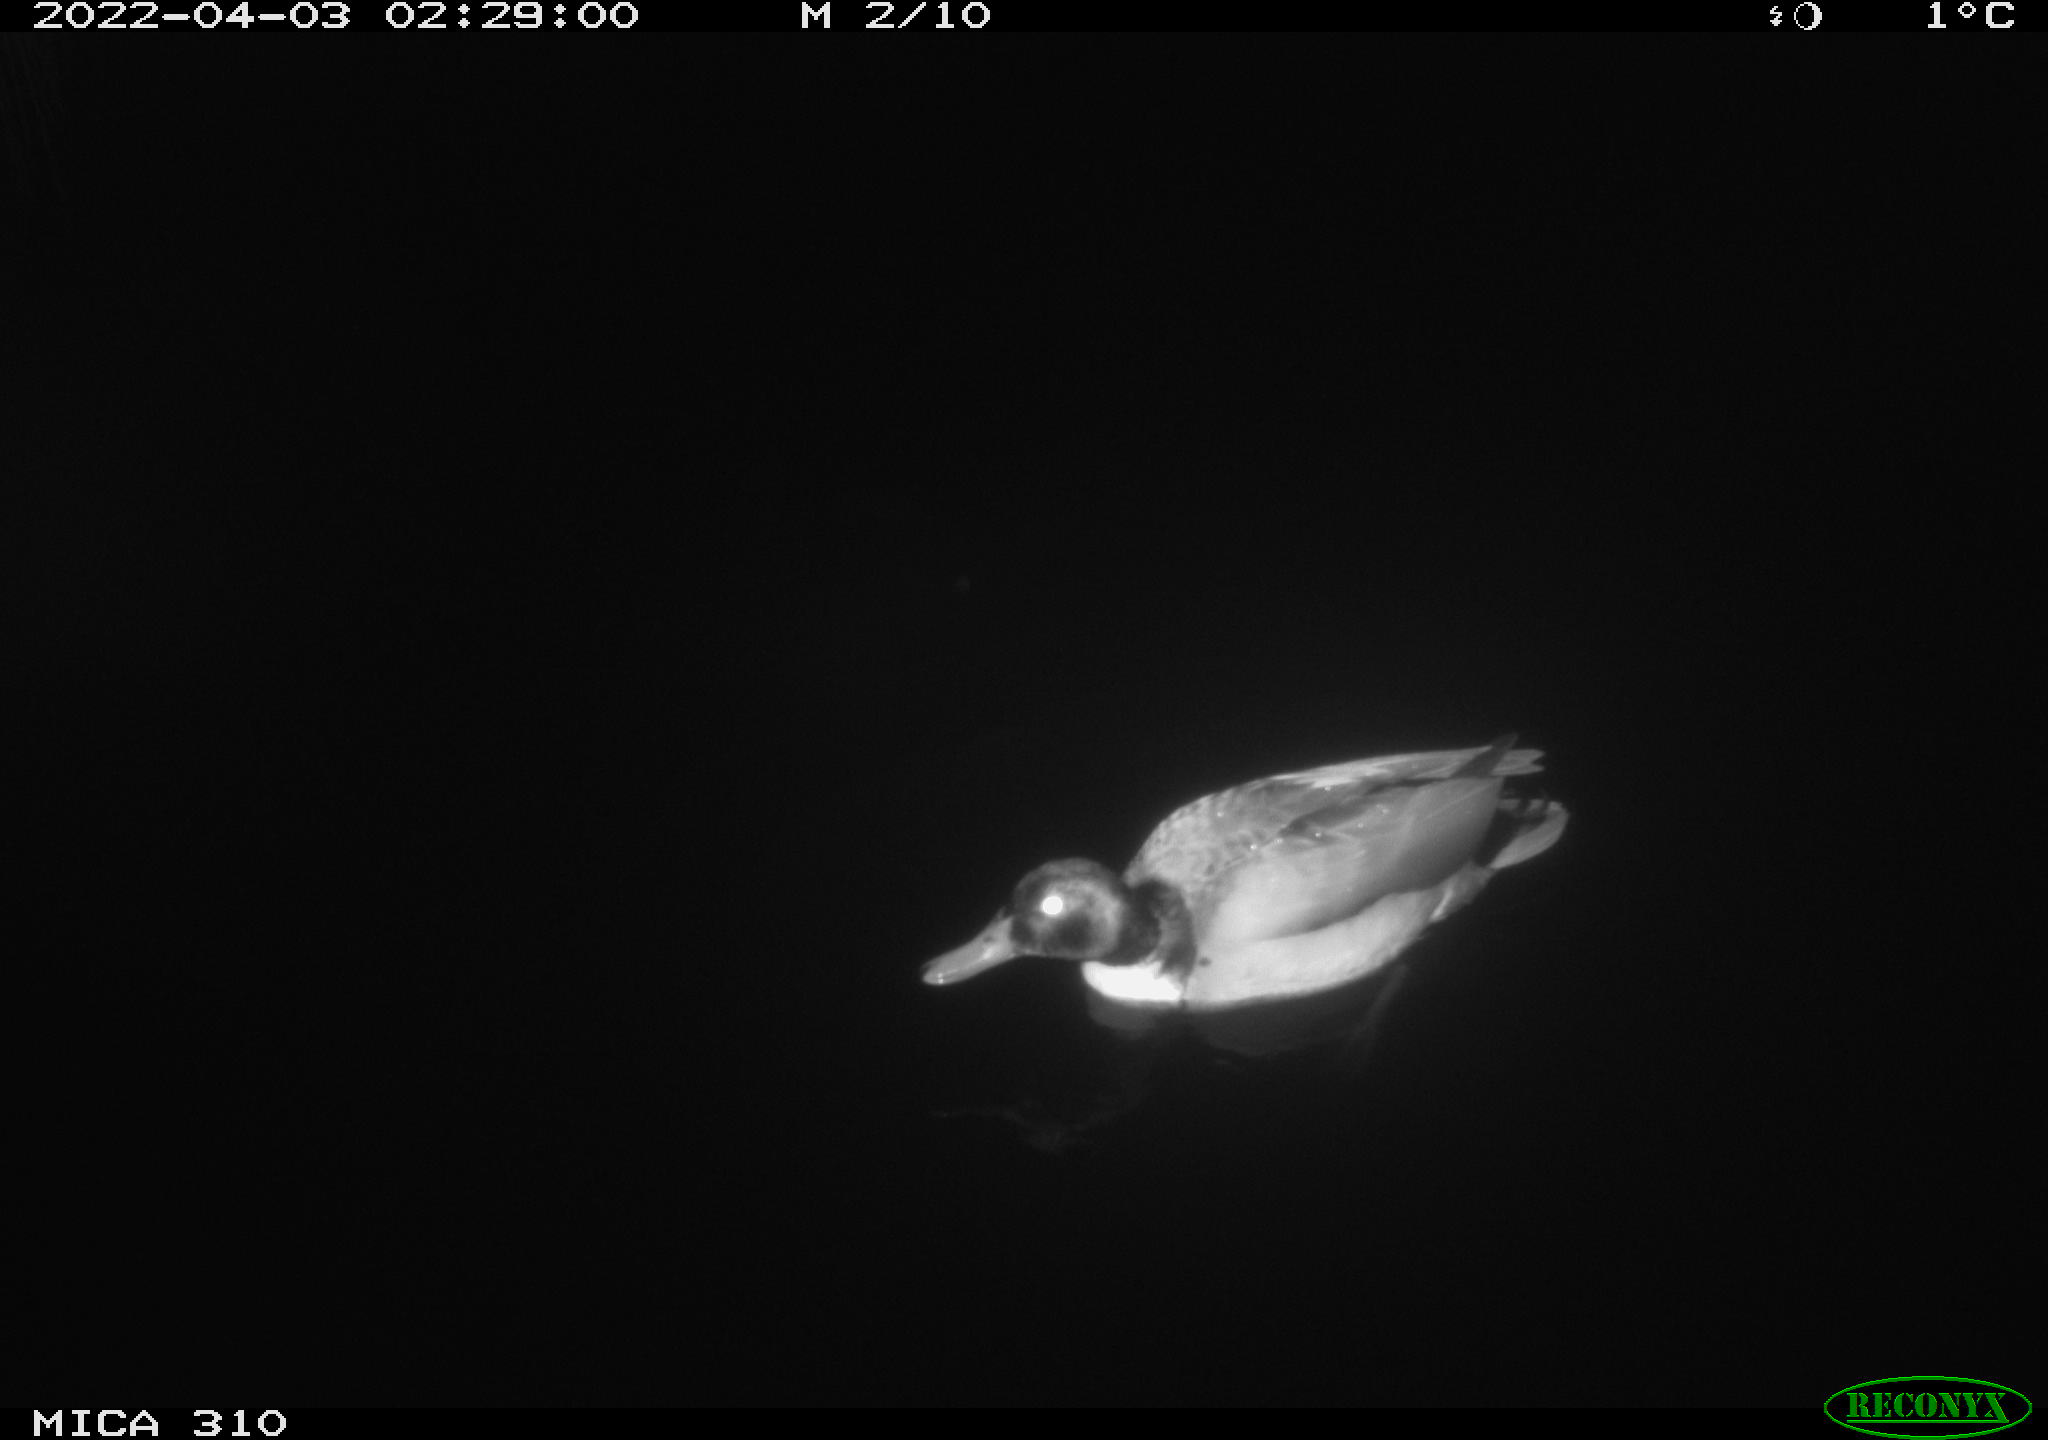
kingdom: Animalia
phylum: Chordata
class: Aves
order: Anseriformes
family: Anatidae
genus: Anas
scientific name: Anas platyrhynchos
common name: Mallard
